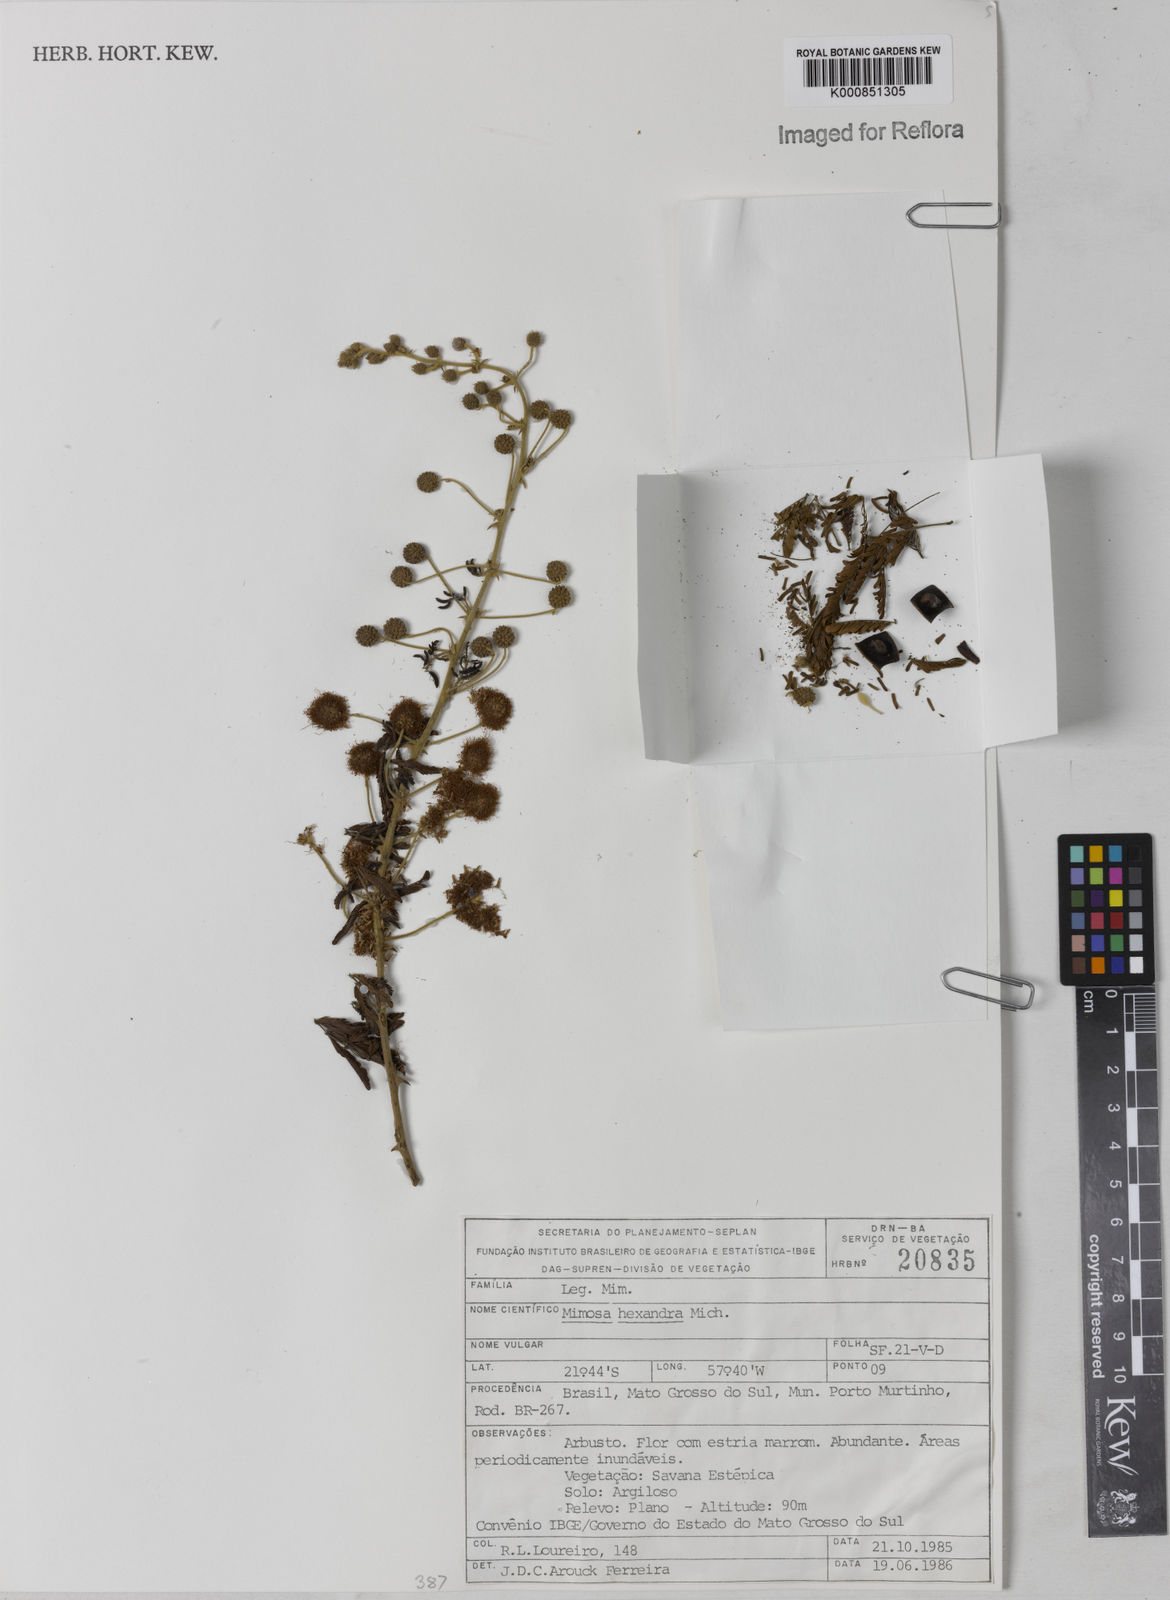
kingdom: Plantae
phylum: Tracheophyta
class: Magnoliopsida
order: Fabales
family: Fabaceae
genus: Mimosa
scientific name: Mimosa hexandra
